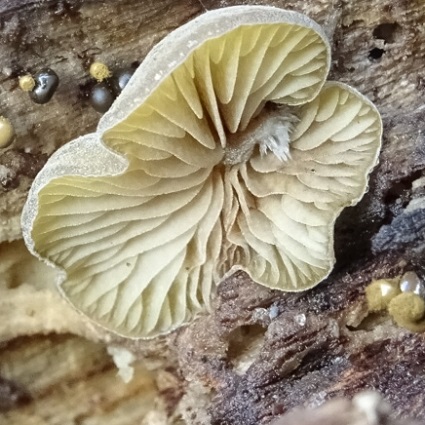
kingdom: Fungi
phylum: Basidiomycota
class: Agaricomycetes
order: Agaricales
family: Crepidotaceae
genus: Simocybe
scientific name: Simocybe haustellaris
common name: skæv skyggehat
